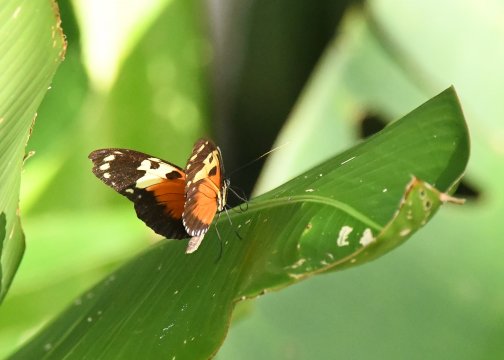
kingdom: Animalia
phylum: Arthropoda
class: Insecta
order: Lepidoptera
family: Nymphalidae
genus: Heliconius
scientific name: Heliconius hecale
